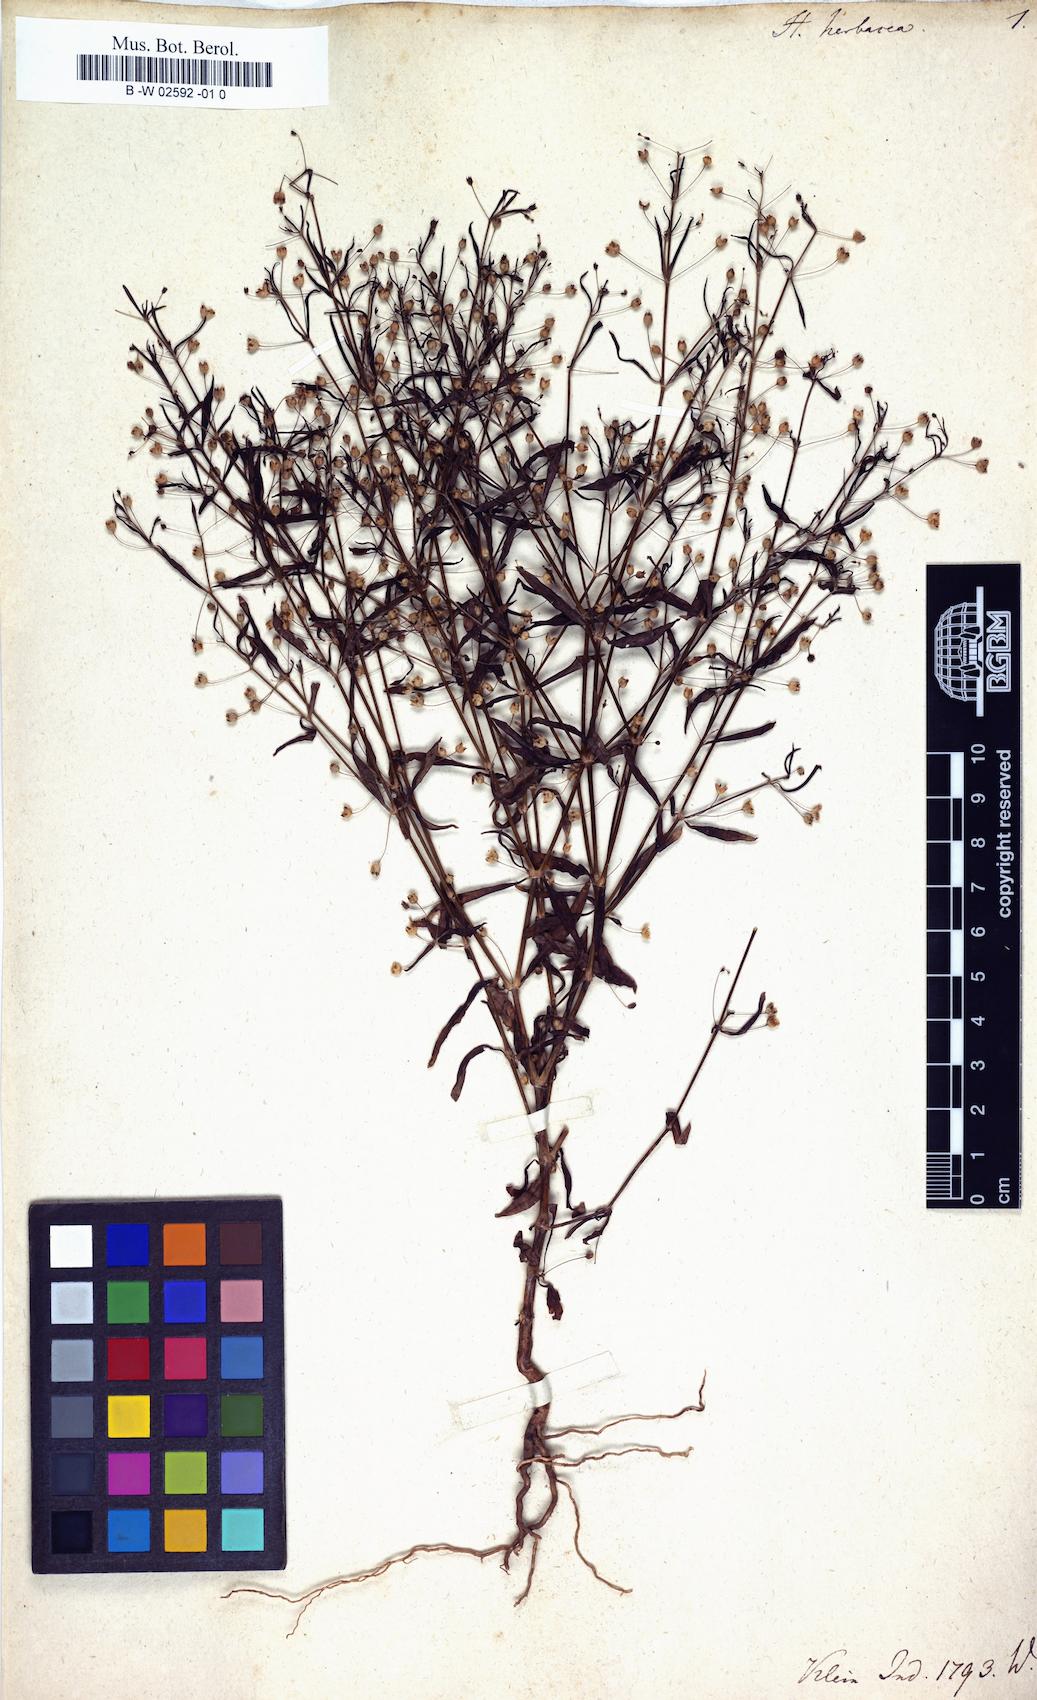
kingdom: Plantae
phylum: Tracheophyta
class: Magnoliopsida
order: Gentianales
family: Rubiaceae
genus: Oldenlandia
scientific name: Oldenlandia herbacea
